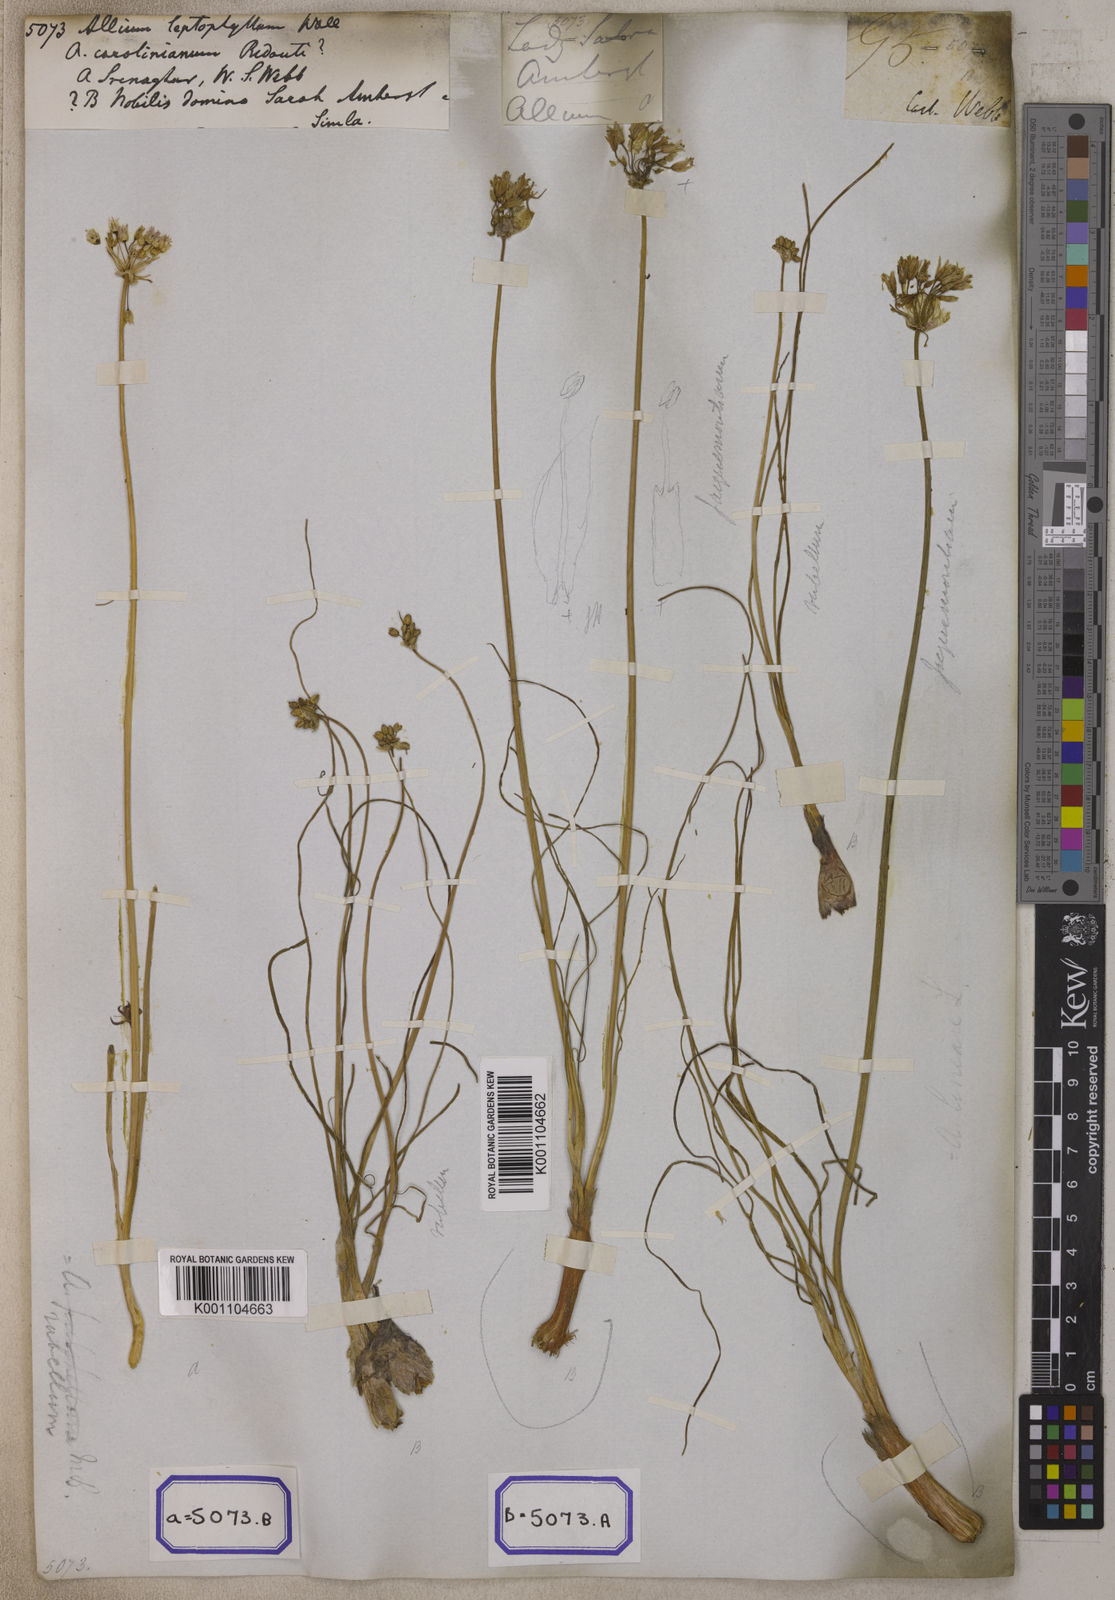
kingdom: Plantae
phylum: Tracheophyta
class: Liliopsida
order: Asparagales
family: Amaryllidaceae
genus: Allium
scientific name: Allium rubellum
